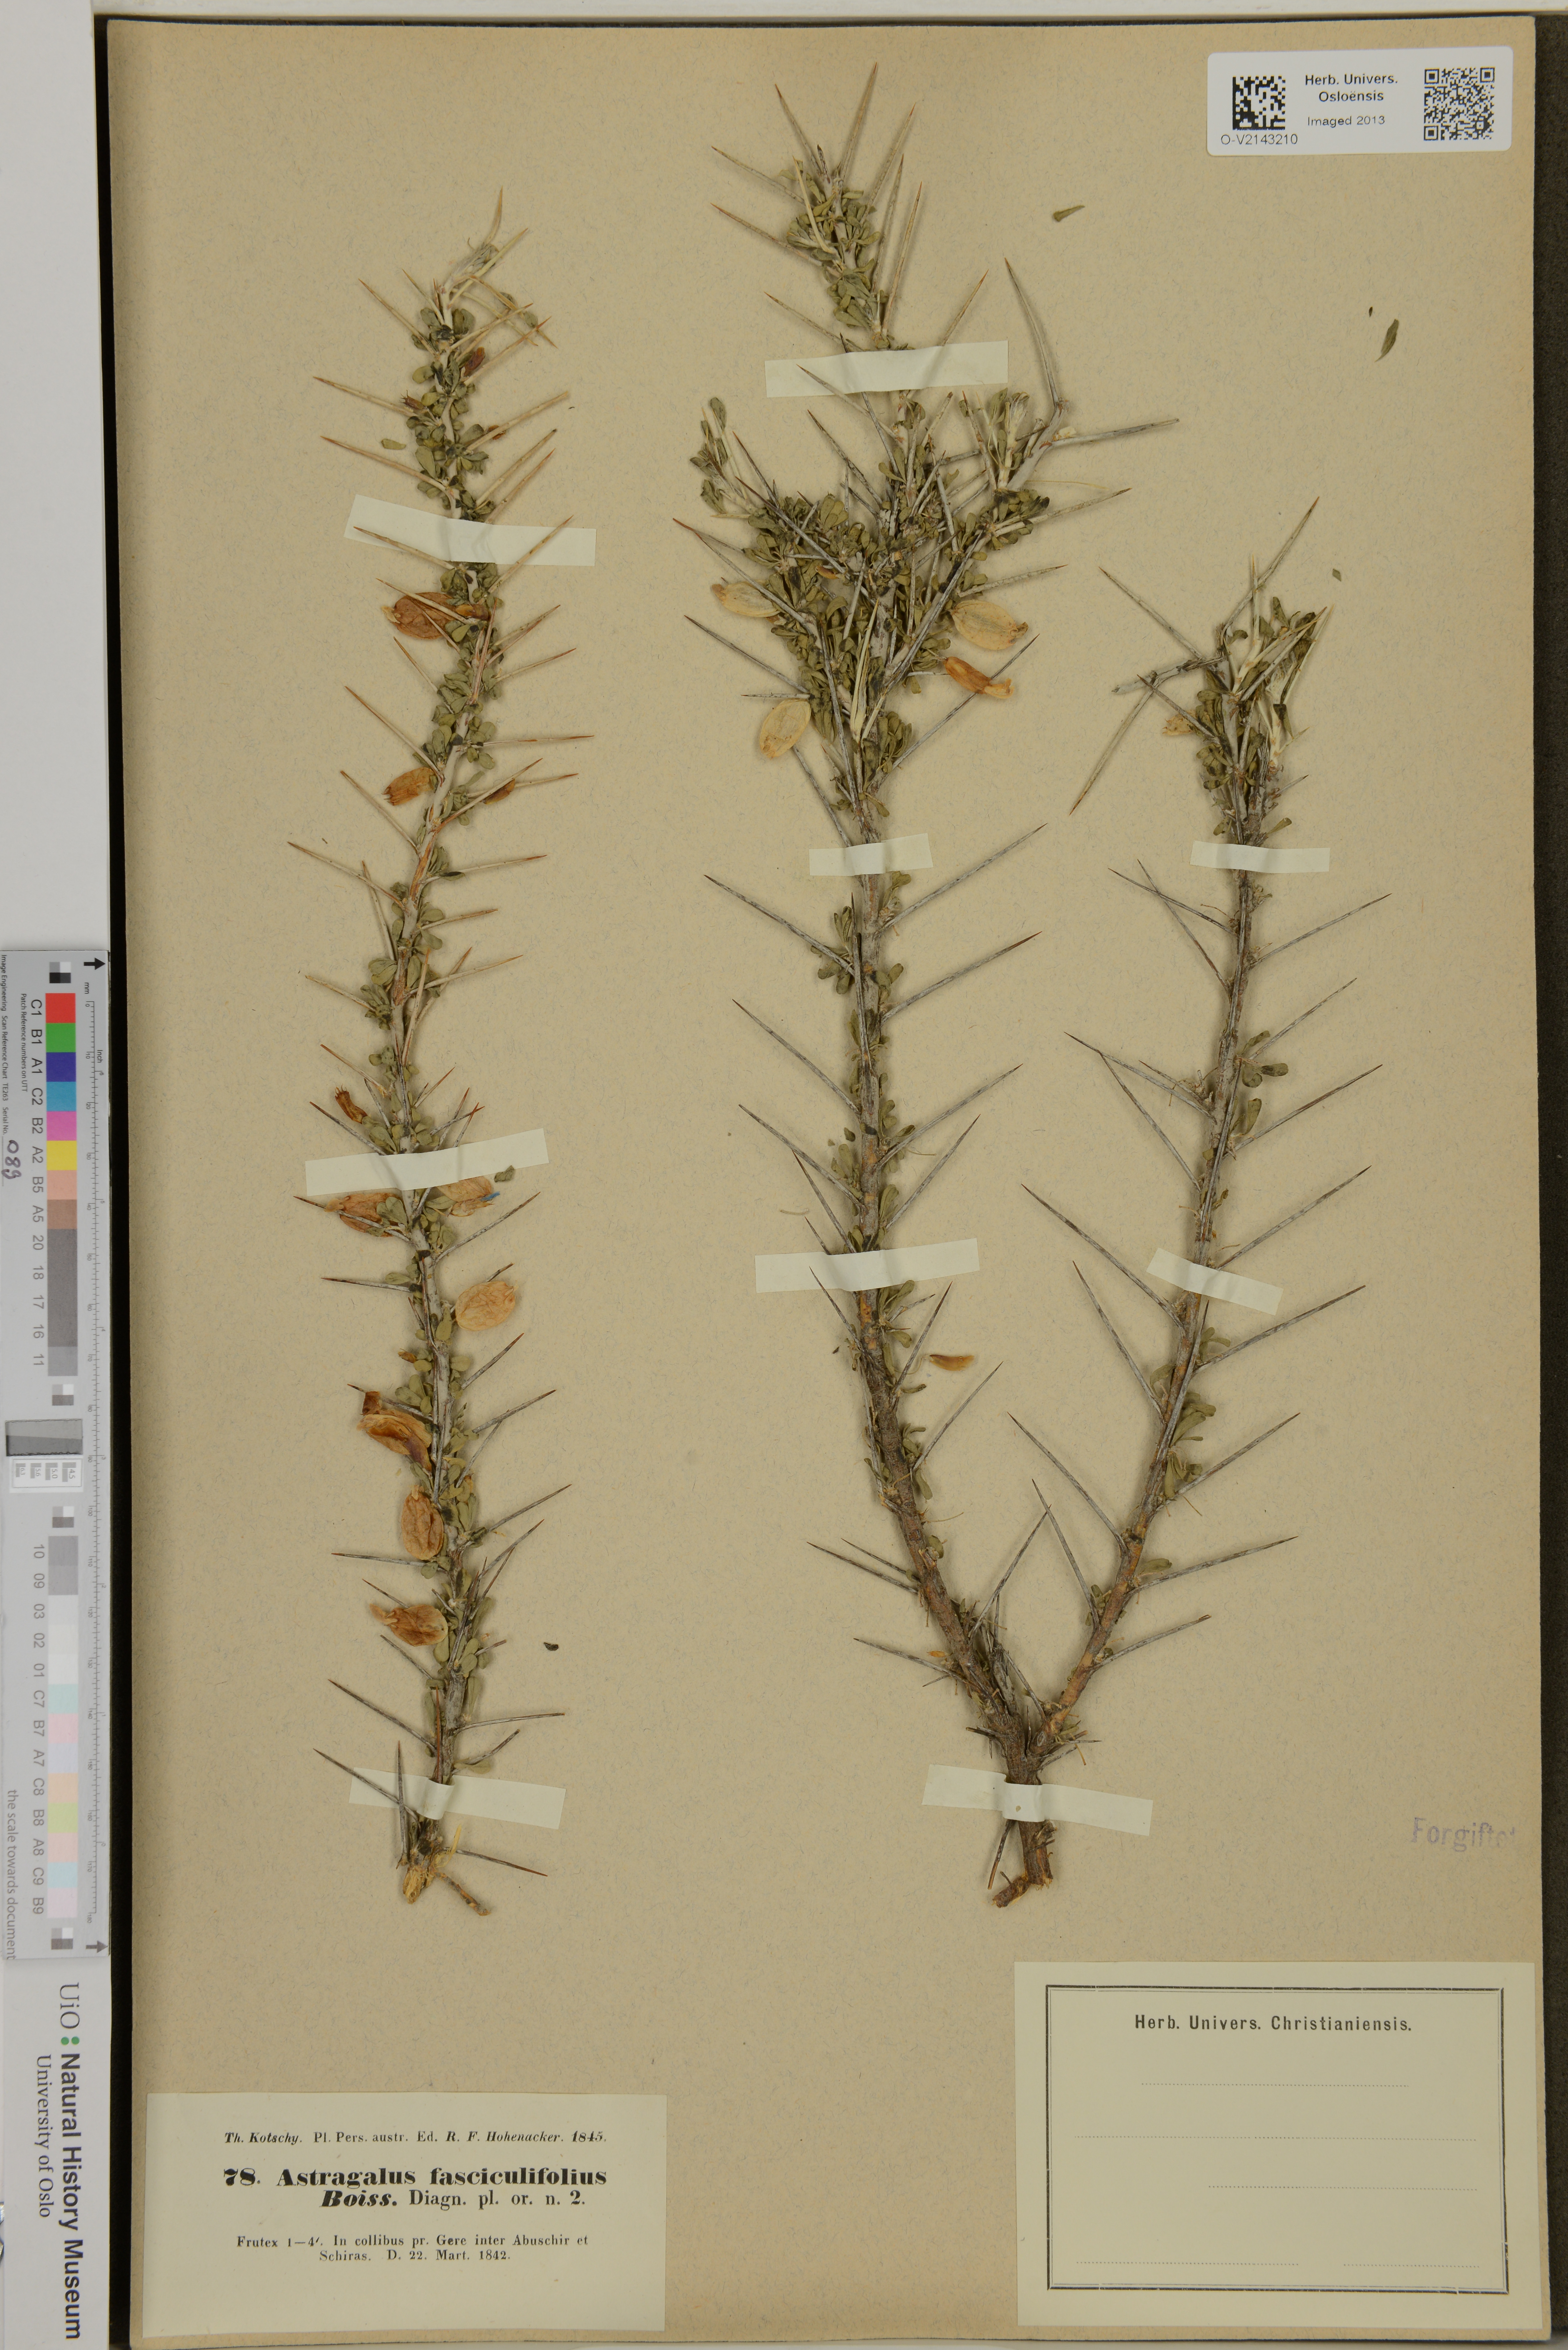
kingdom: Plantae
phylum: Tracheophyta
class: Magnoliopsida
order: Fabales
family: Fabaceae
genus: Astragalus
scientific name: Astragalus fasciculifolius
